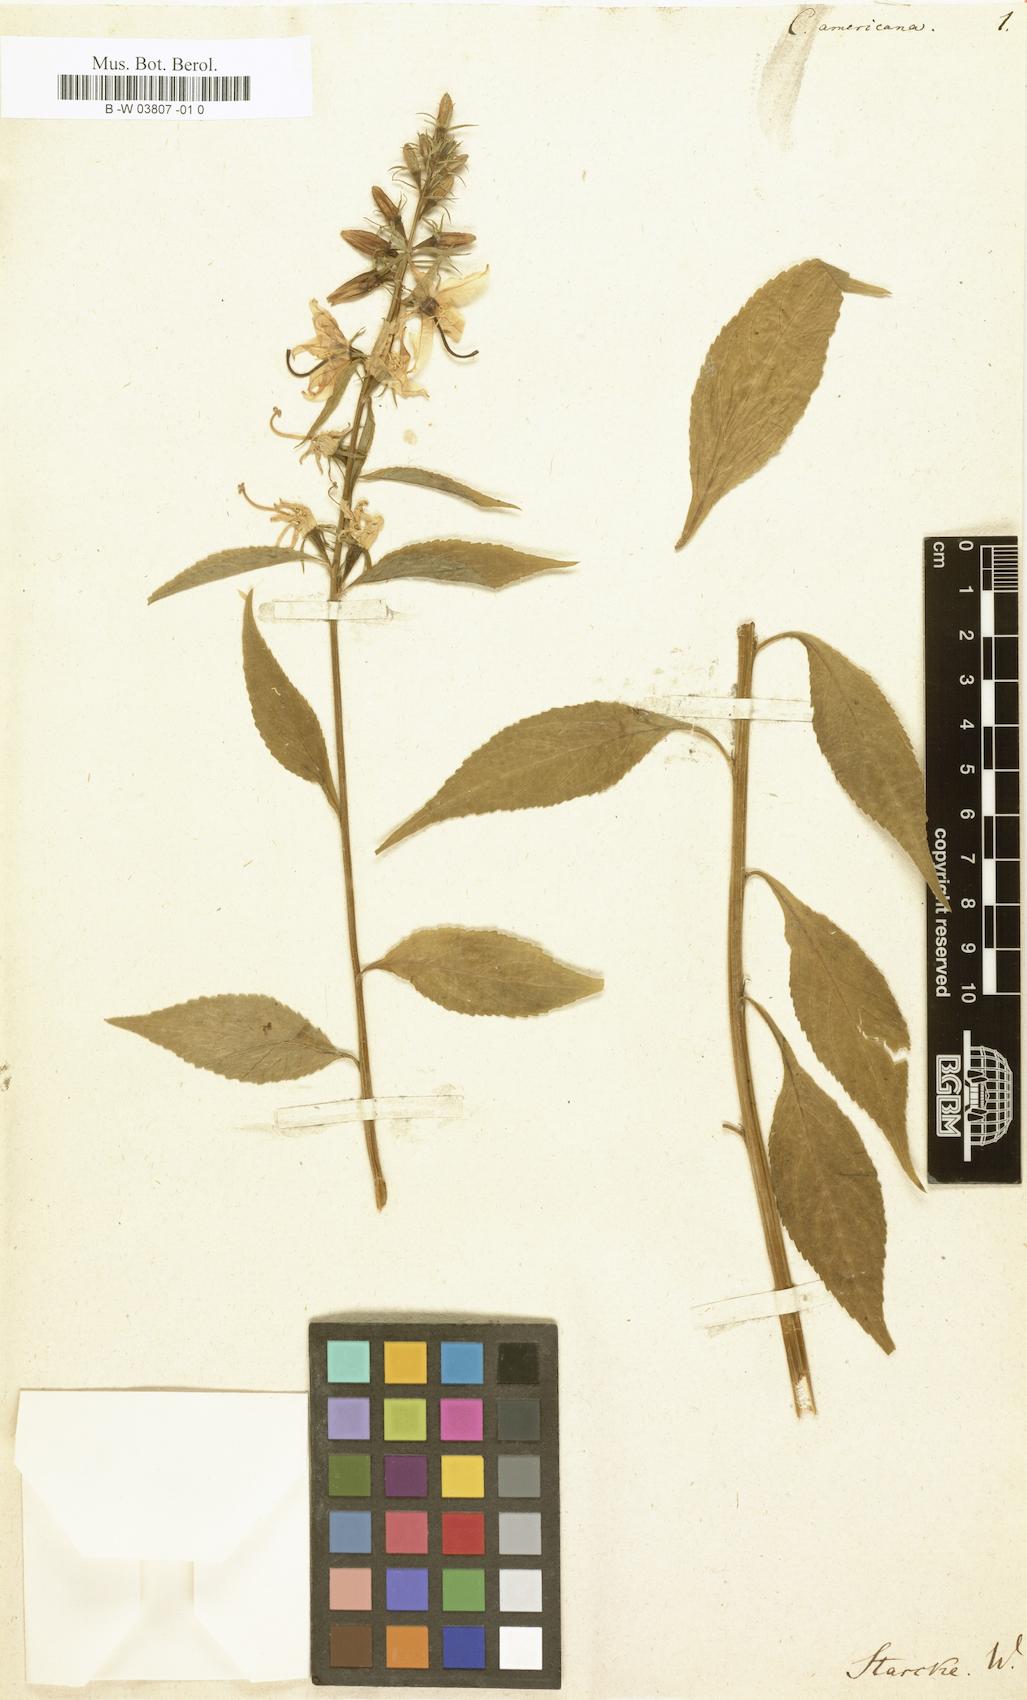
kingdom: Plantae
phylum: Tracheophyta
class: Magnoliopsida
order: Asterales
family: Campanulaceae
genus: Campanula
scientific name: Campanula americana
